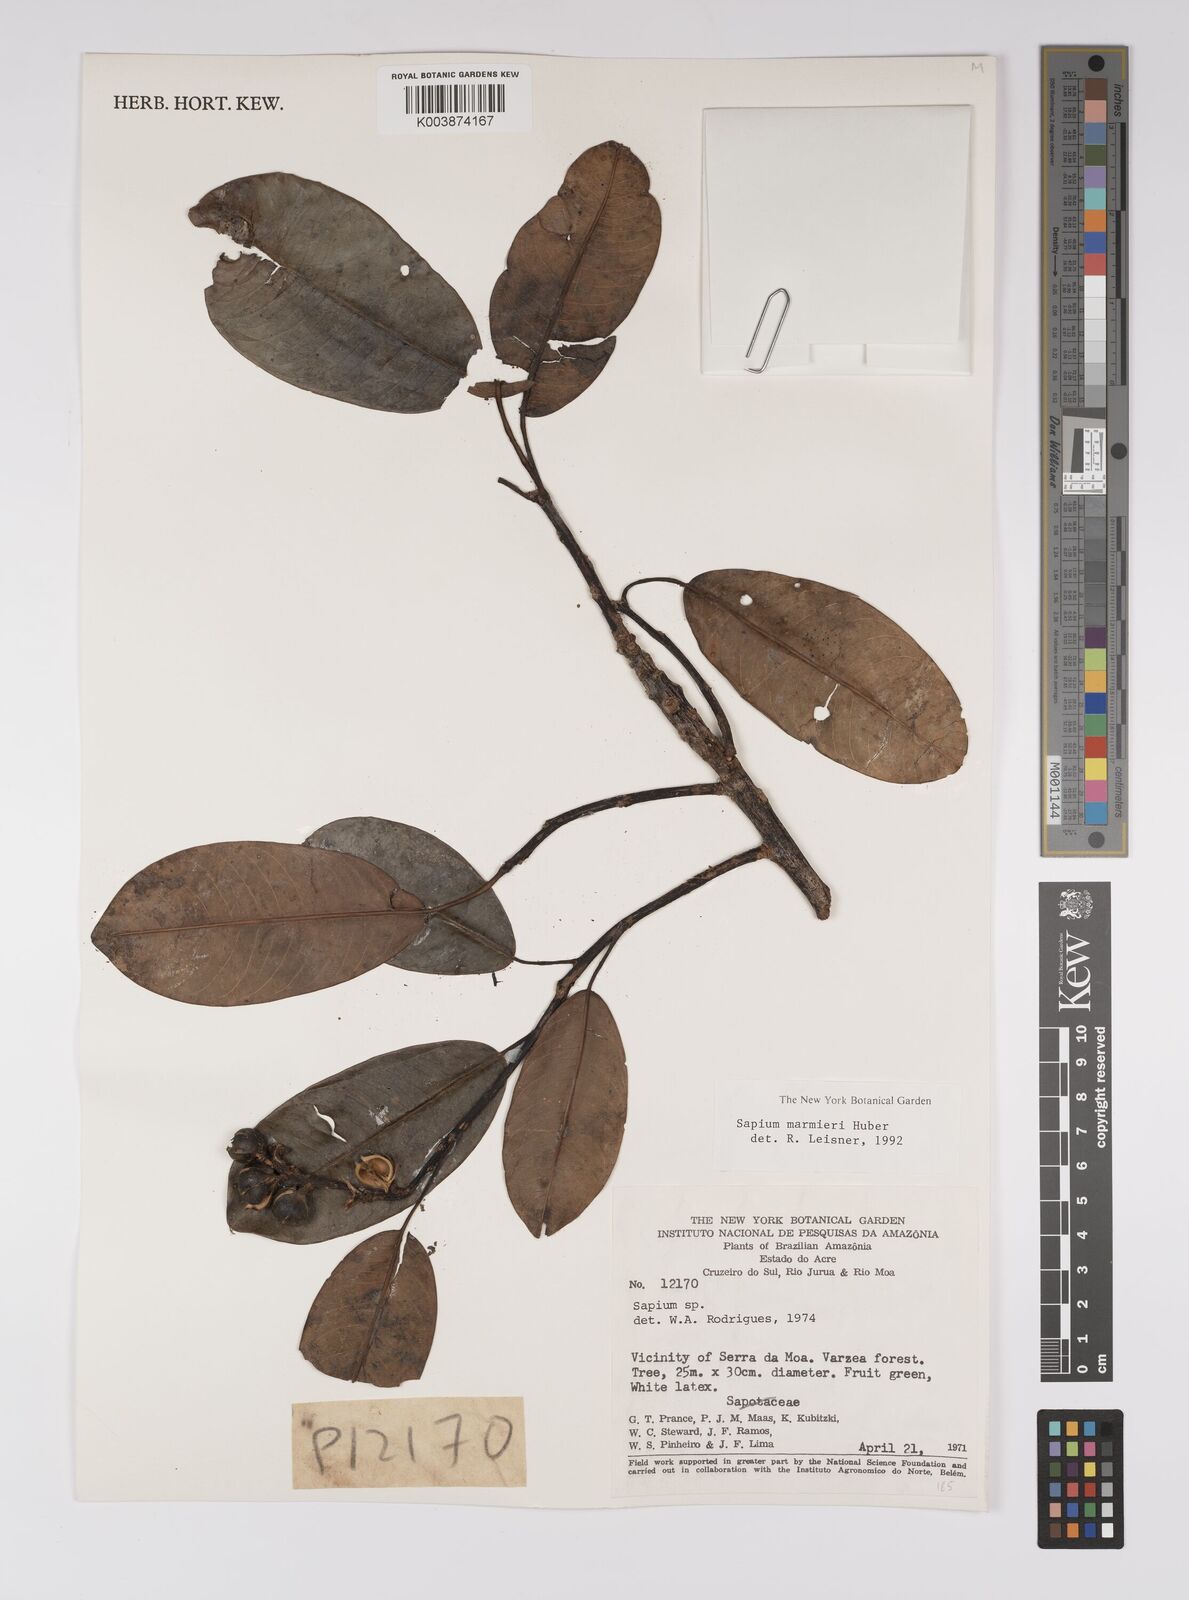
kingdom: Plantae
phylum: Tracheophyta
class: Magnoliopsida
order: Malpighiales
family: Euphorbiaceae
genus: Sapium
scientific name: Sapium marmieri
